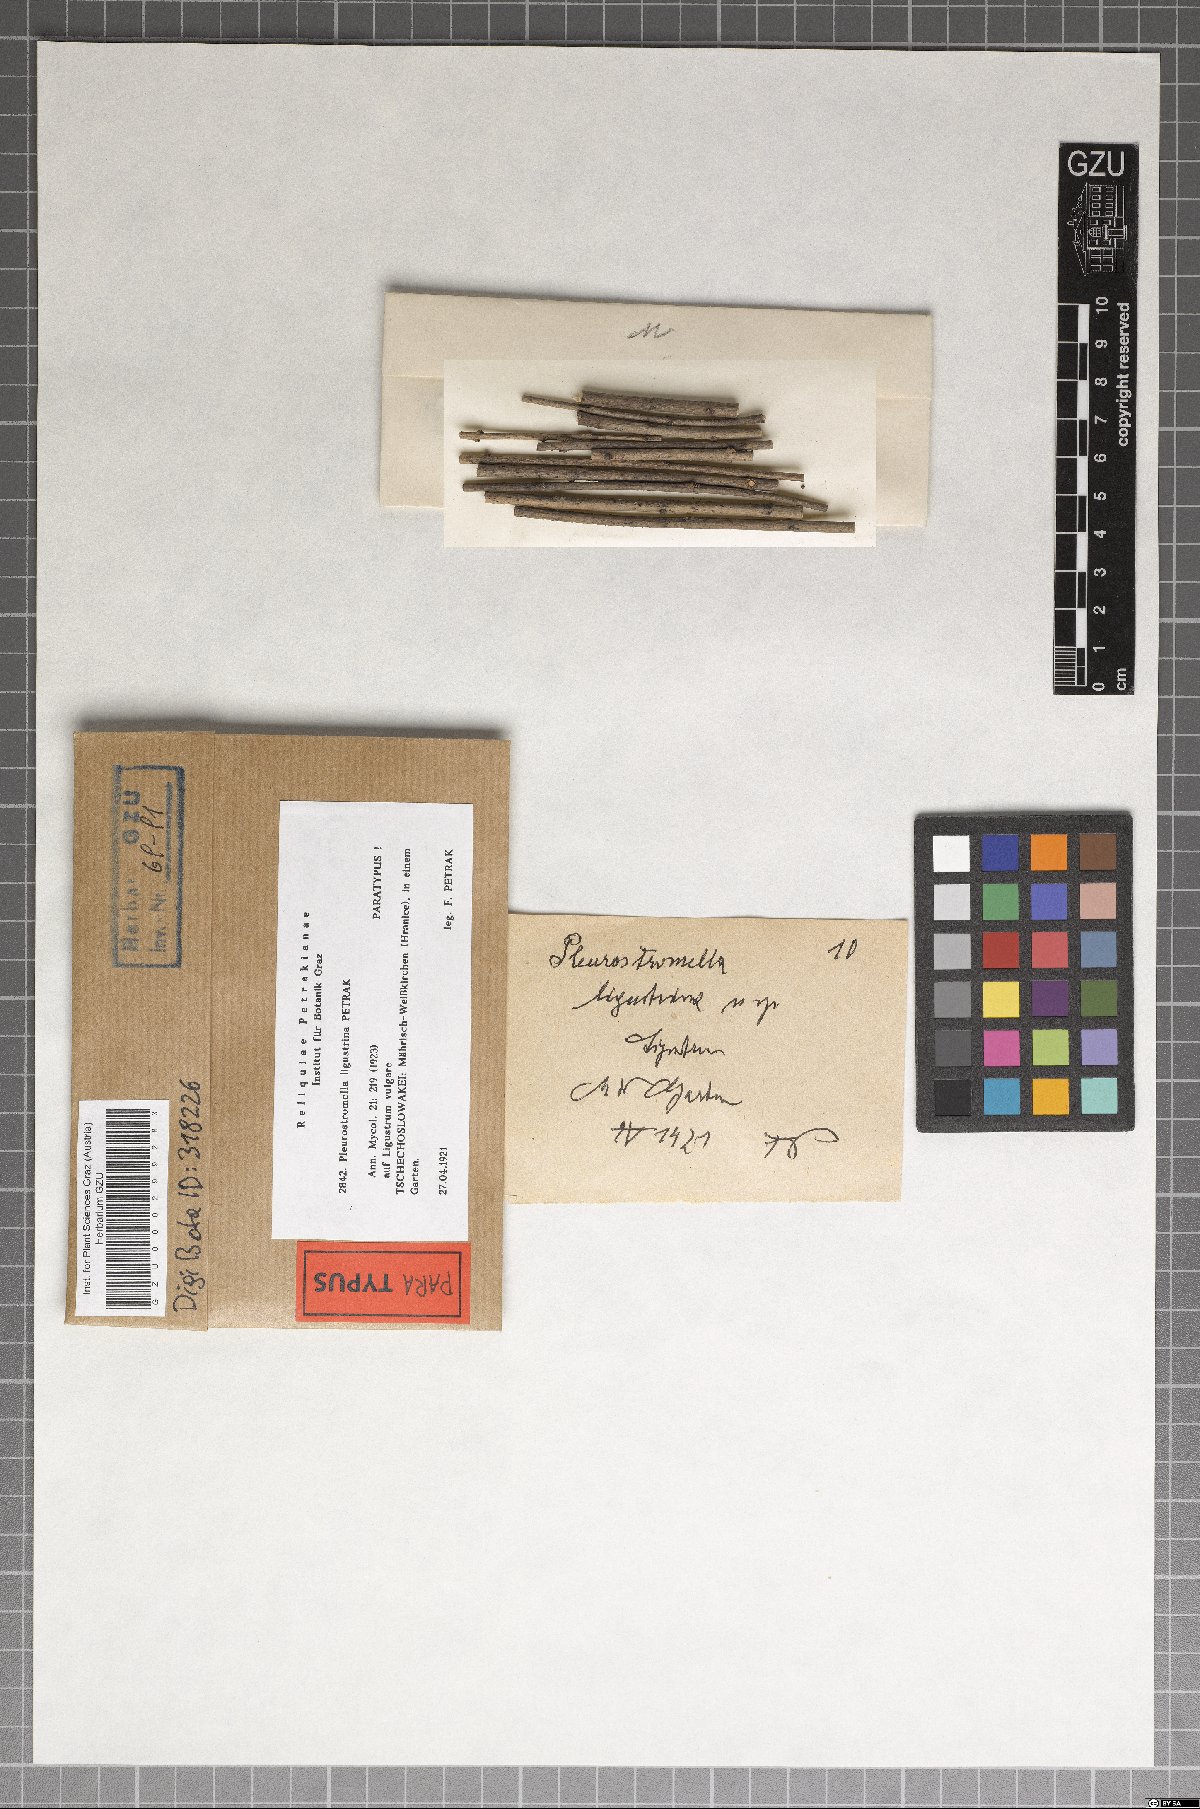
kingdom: Fungi
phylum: Ascomycota
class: Dothideomycetes
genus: Pleurostromella
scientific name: Pleurostromella ligustrina
